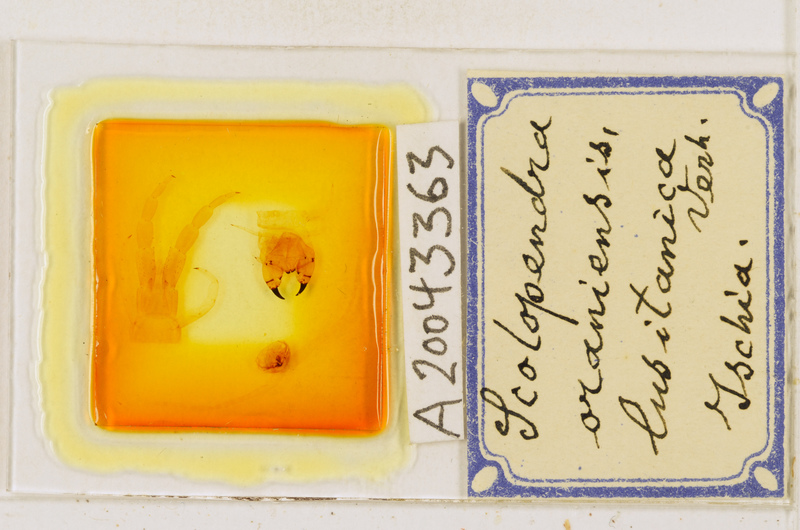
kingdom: Animalia
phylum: Arthropoda
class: Chilopoda
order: Scolopendromorpha
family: Scolopendridae
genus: Scolopendra
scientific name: Scolopendra oraniensis
